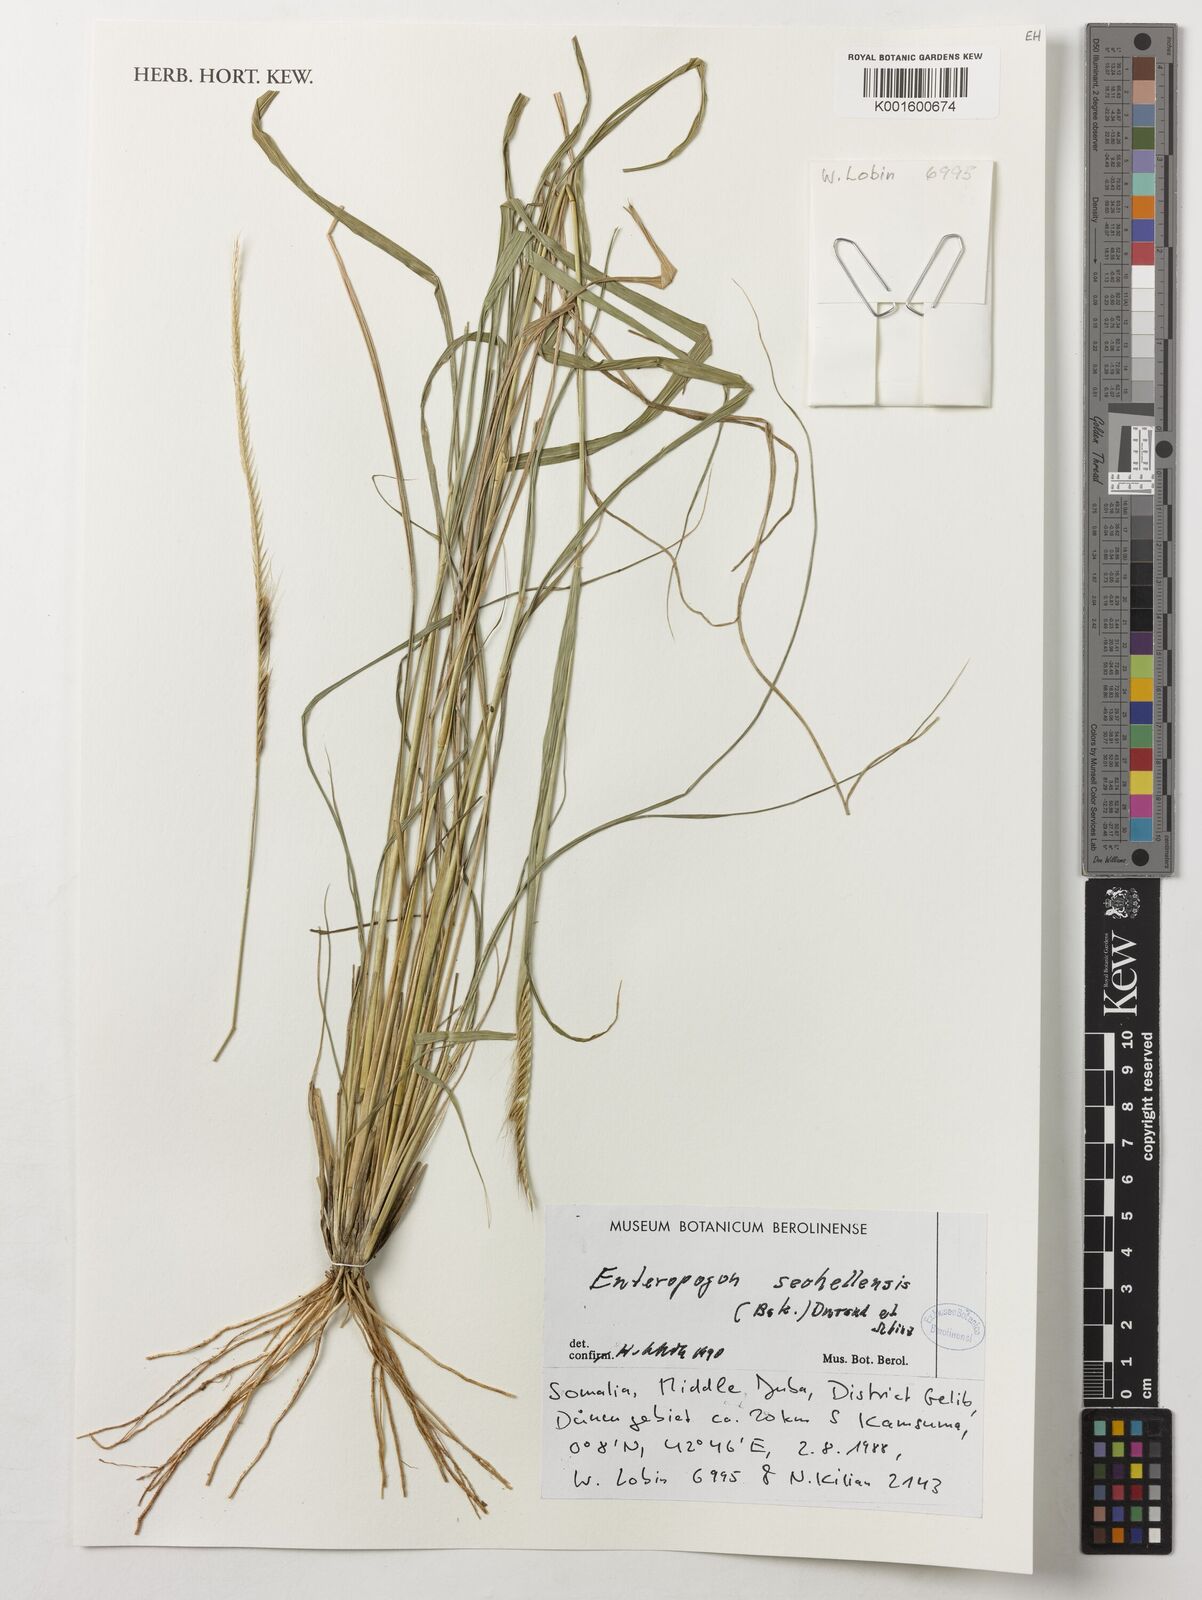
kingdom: Plantae
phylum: Tracheophyta
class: Liliopsida
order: Poales
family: Poaceae
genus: Enteropogon
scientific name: Enteropogon sechellensis
